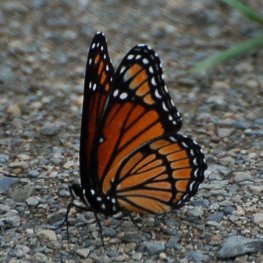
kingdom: Animalia
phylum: Arthropoda
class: Insecta
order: Lepidoptera
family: Nymphalidae
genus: Limenitis
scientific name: Limenitis archippus
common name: Viceroy
